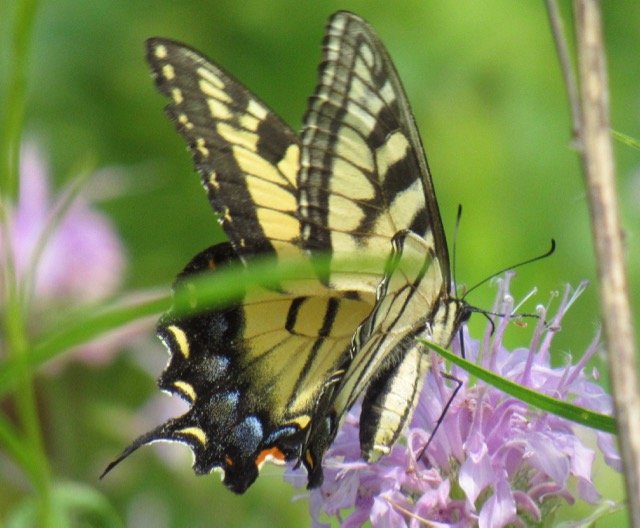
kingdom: Animalia
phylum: Arthropoda
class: Insecta
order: Lepidoptera
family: Papilionidae
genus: Pterourus
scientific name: Pterourus
